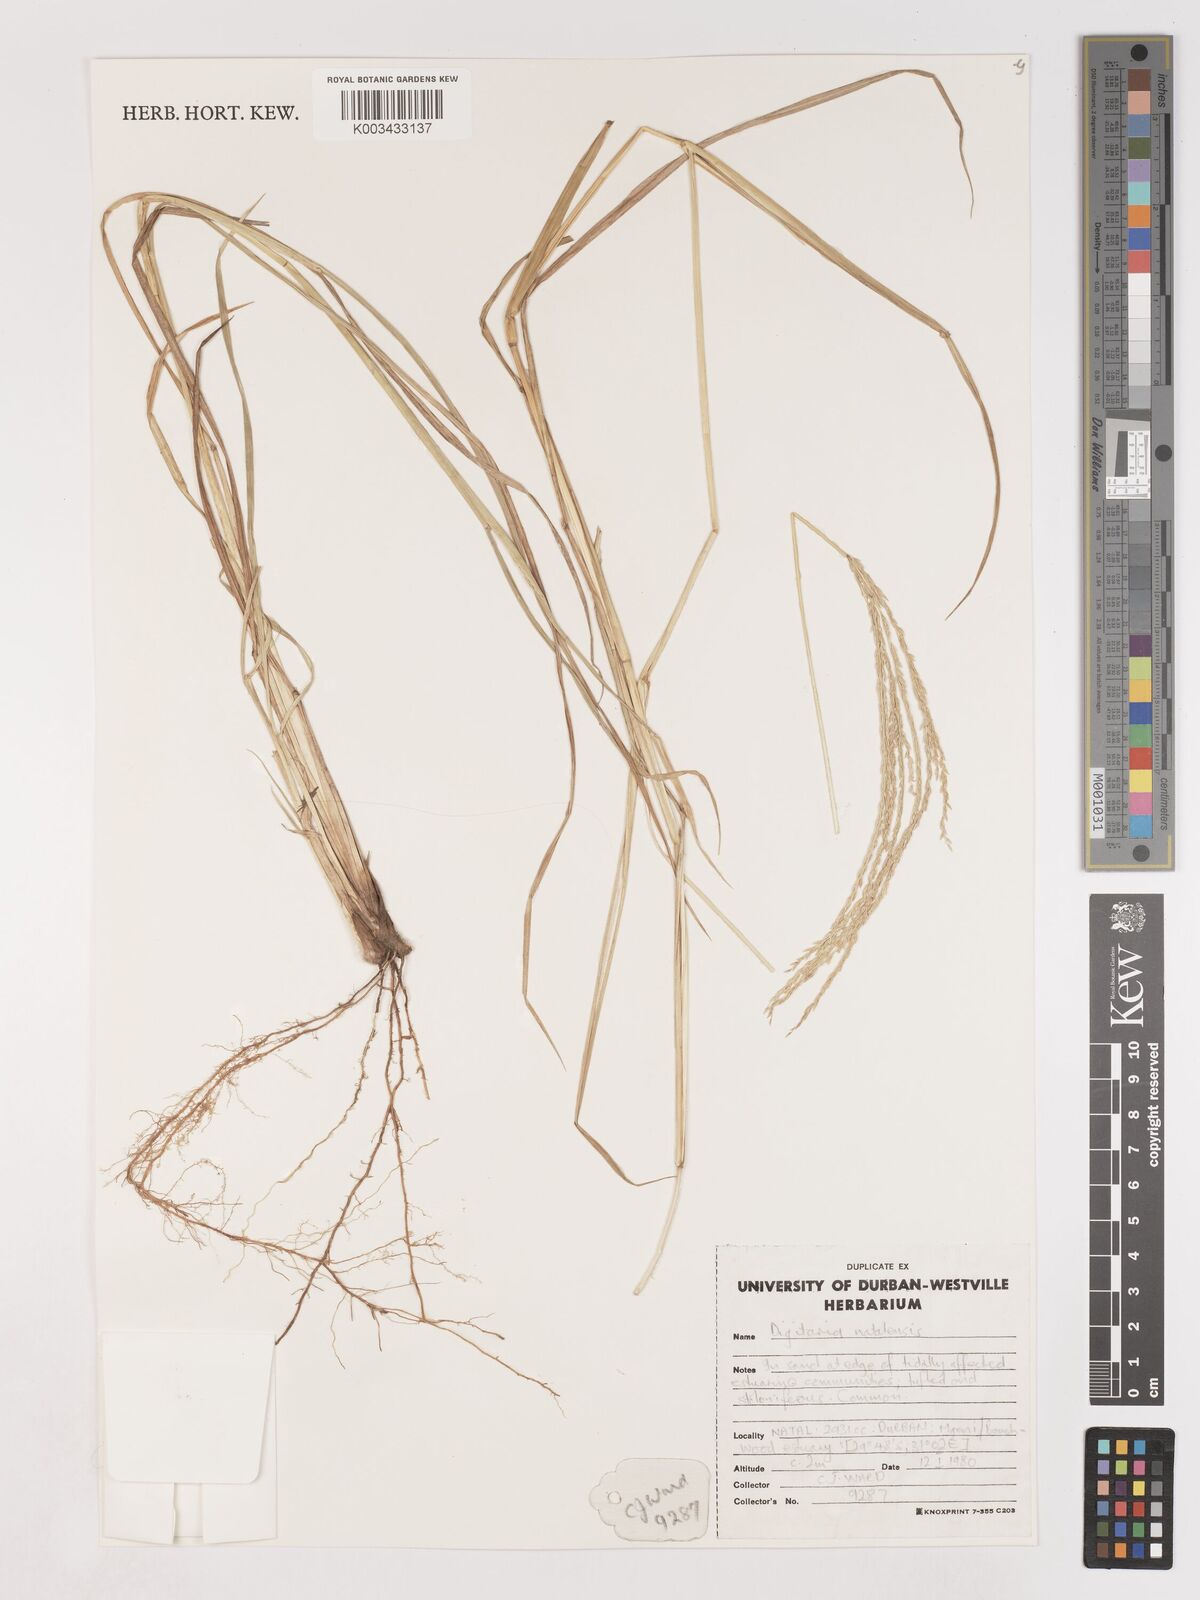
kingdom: Plantae
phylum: Tracheophyta
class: Liliopsida
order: Poales
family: Poaceae
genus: Digitaria
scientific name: Digitaria natalensis
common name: Coast finger grass
